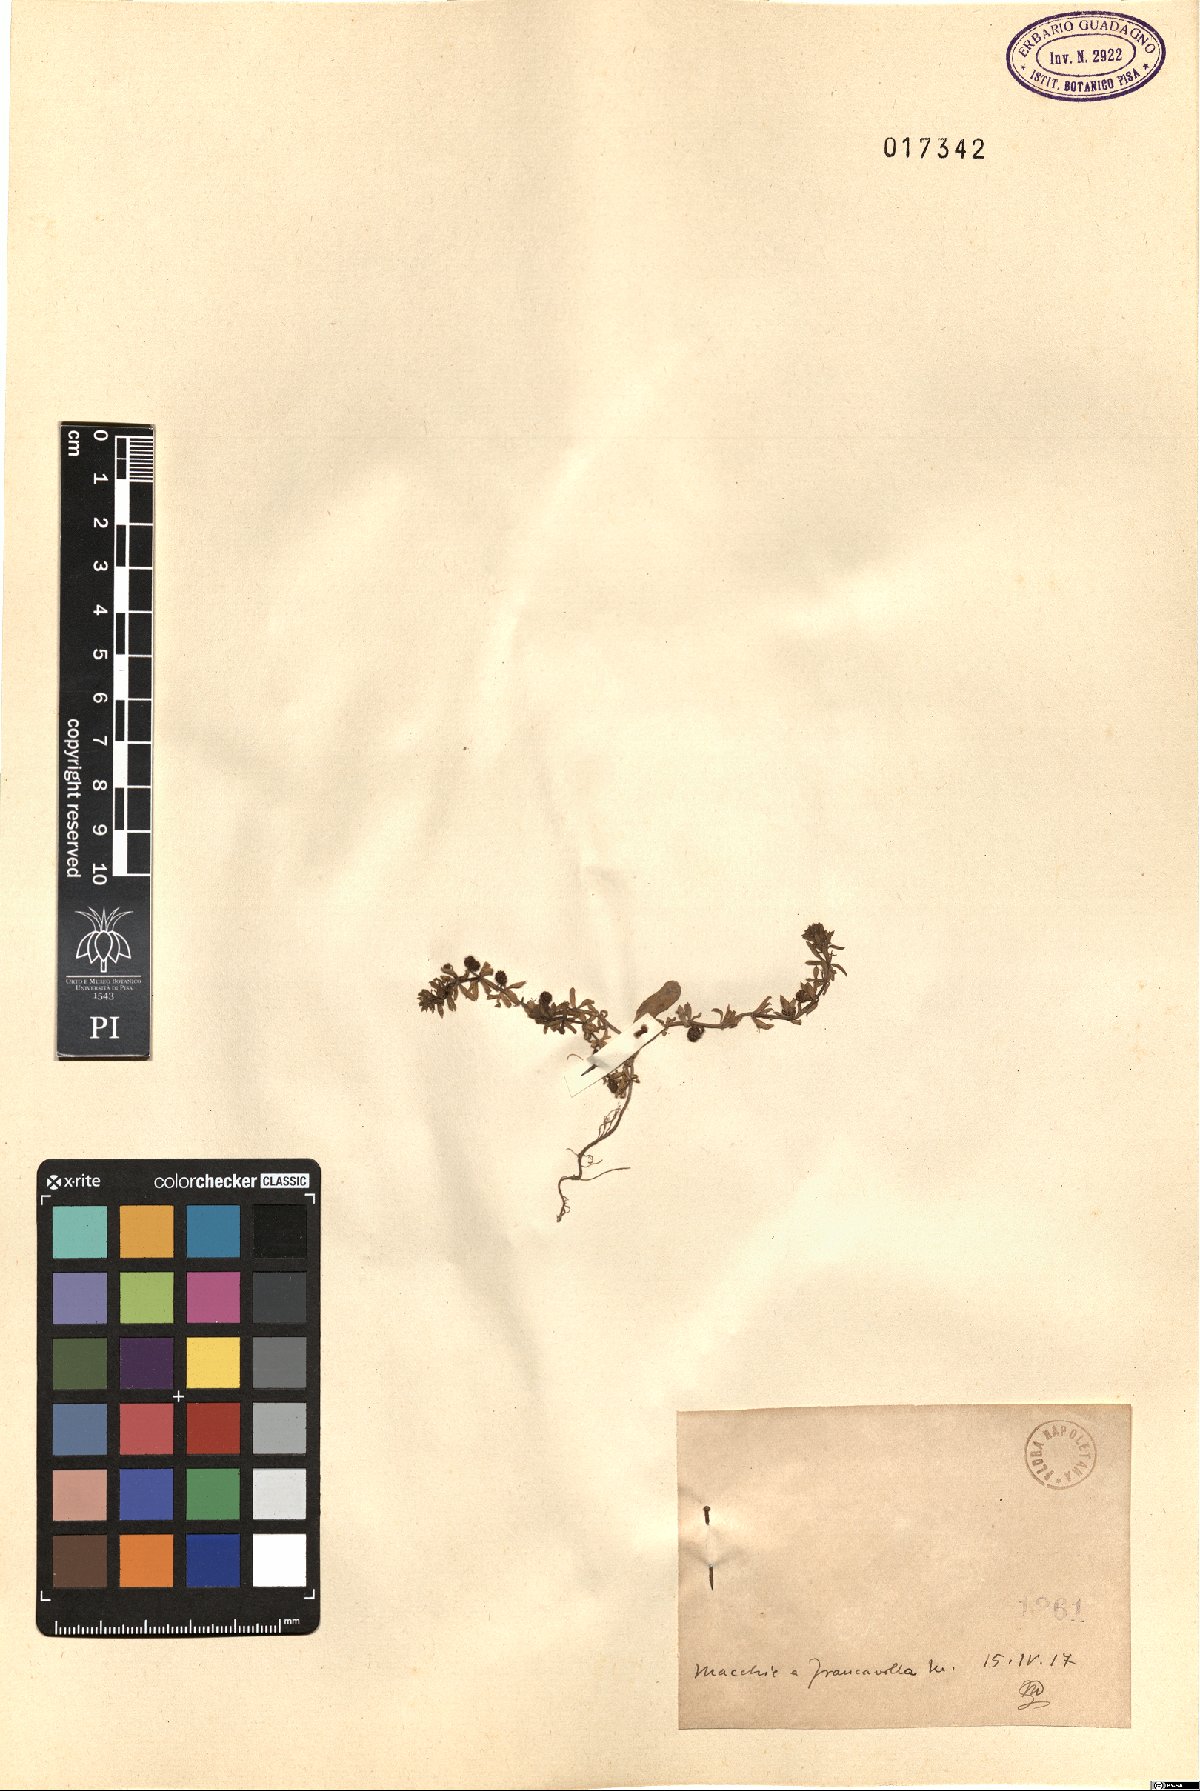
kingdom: Plantae
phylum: Tracheophyta
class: Magnoliopsida
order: Gentianales
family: Rubiaceae
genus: Galium
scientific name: Galium
